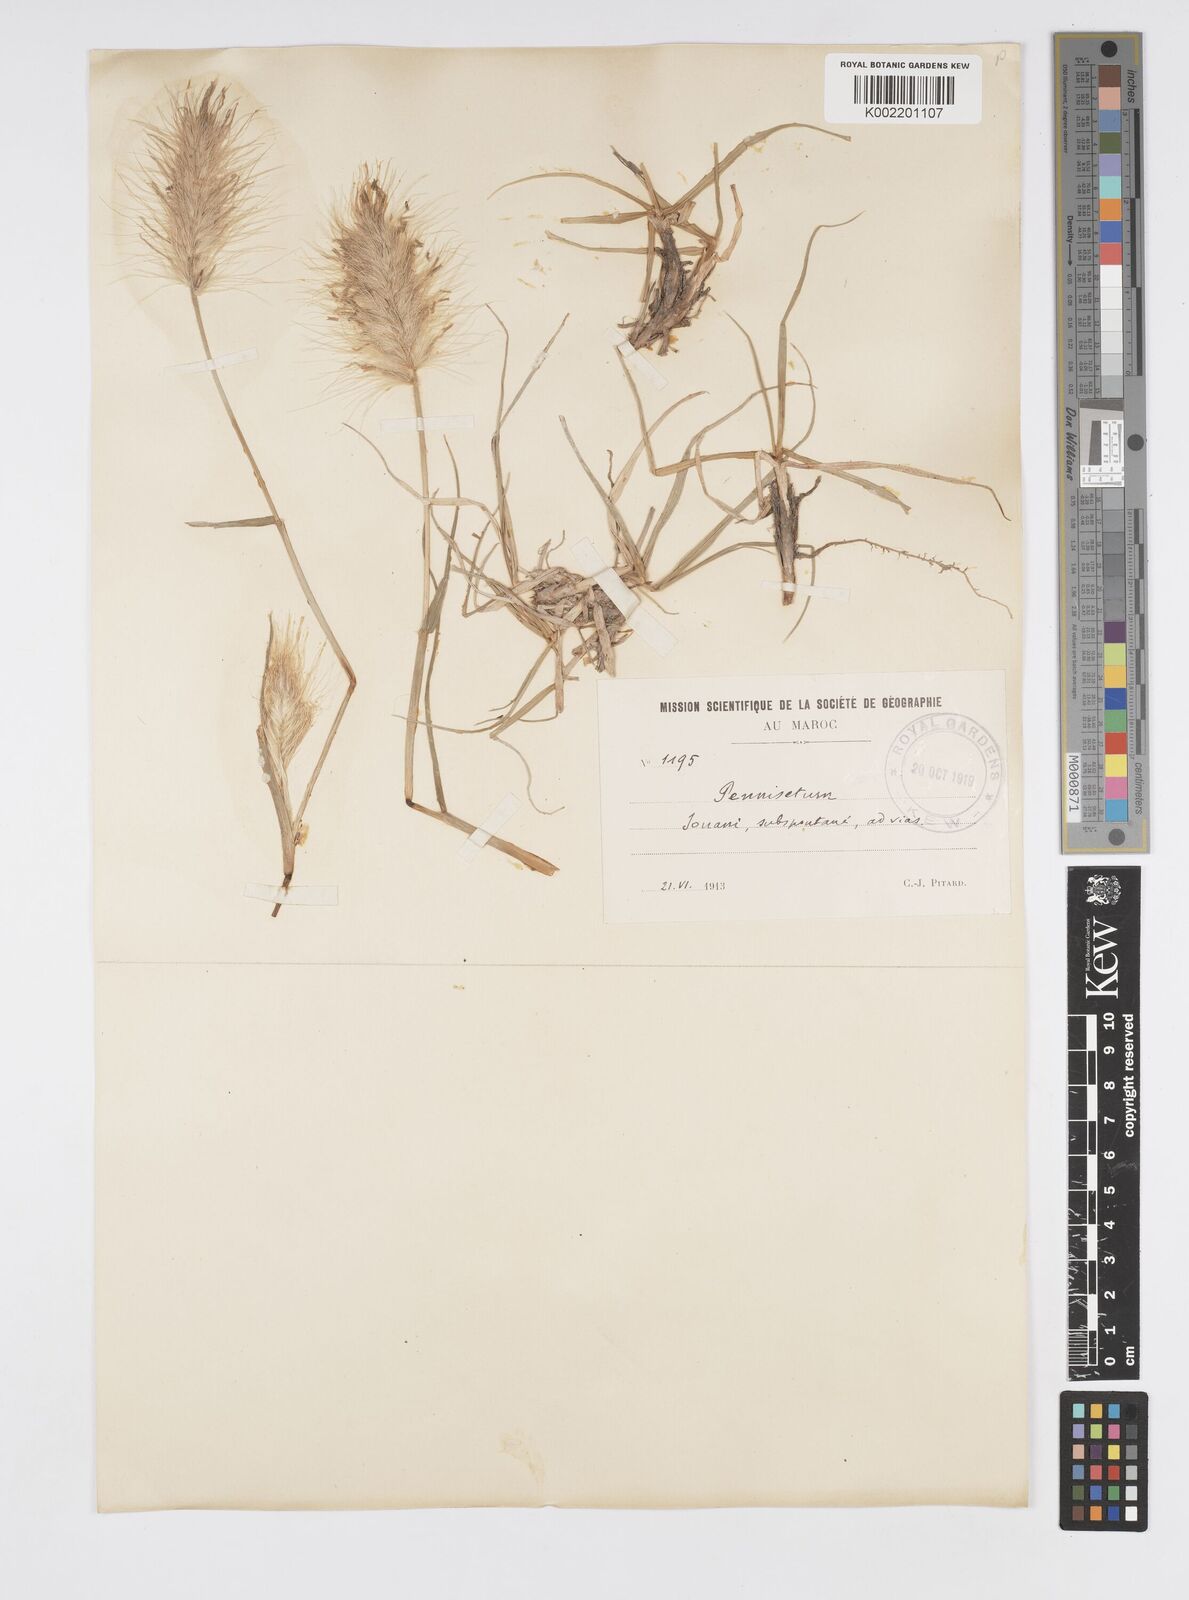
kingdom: Plantae
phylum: Tracheophyta
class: Liliopsida
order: Poales
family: Poaceae
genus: Cenchrus
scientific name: Cenchrus longisetus
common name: Feathertop
